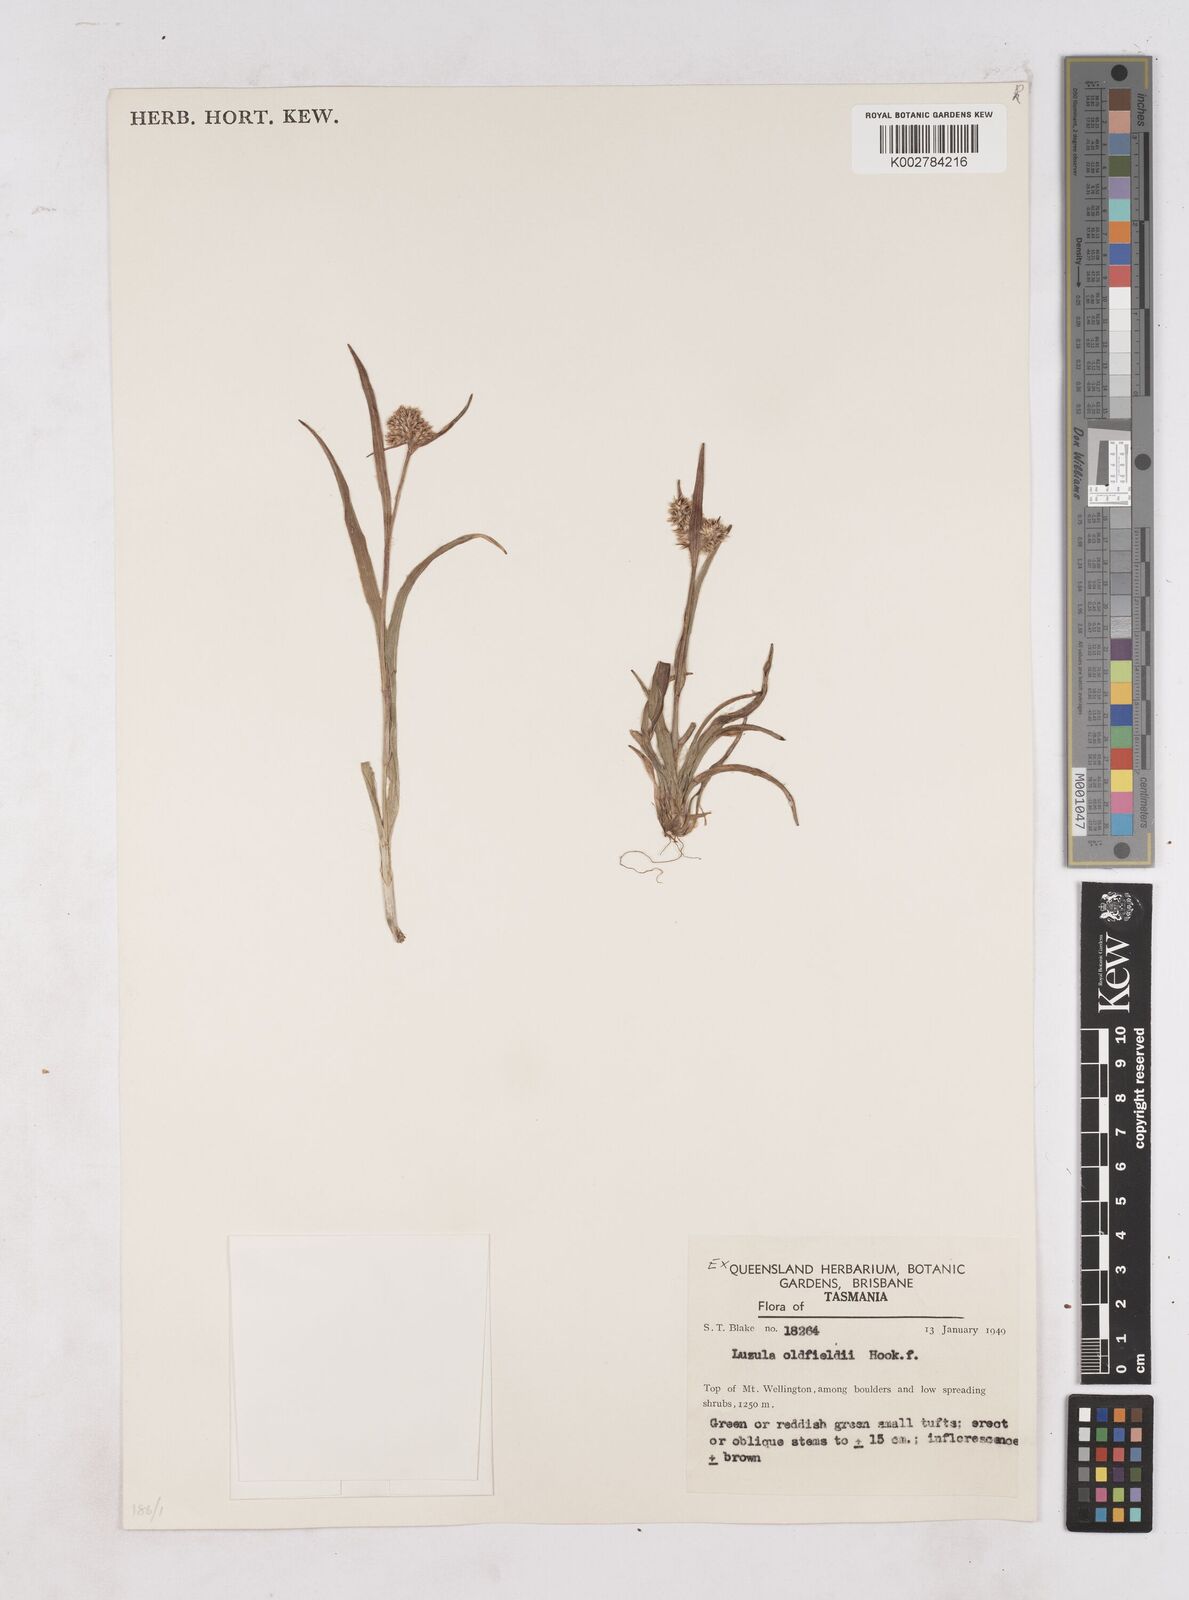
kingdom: Plantae
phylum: Tracheophyta
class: Liliopsida
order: Poales
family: Juncaceae
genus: Luzula
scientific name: Luzula australasica
